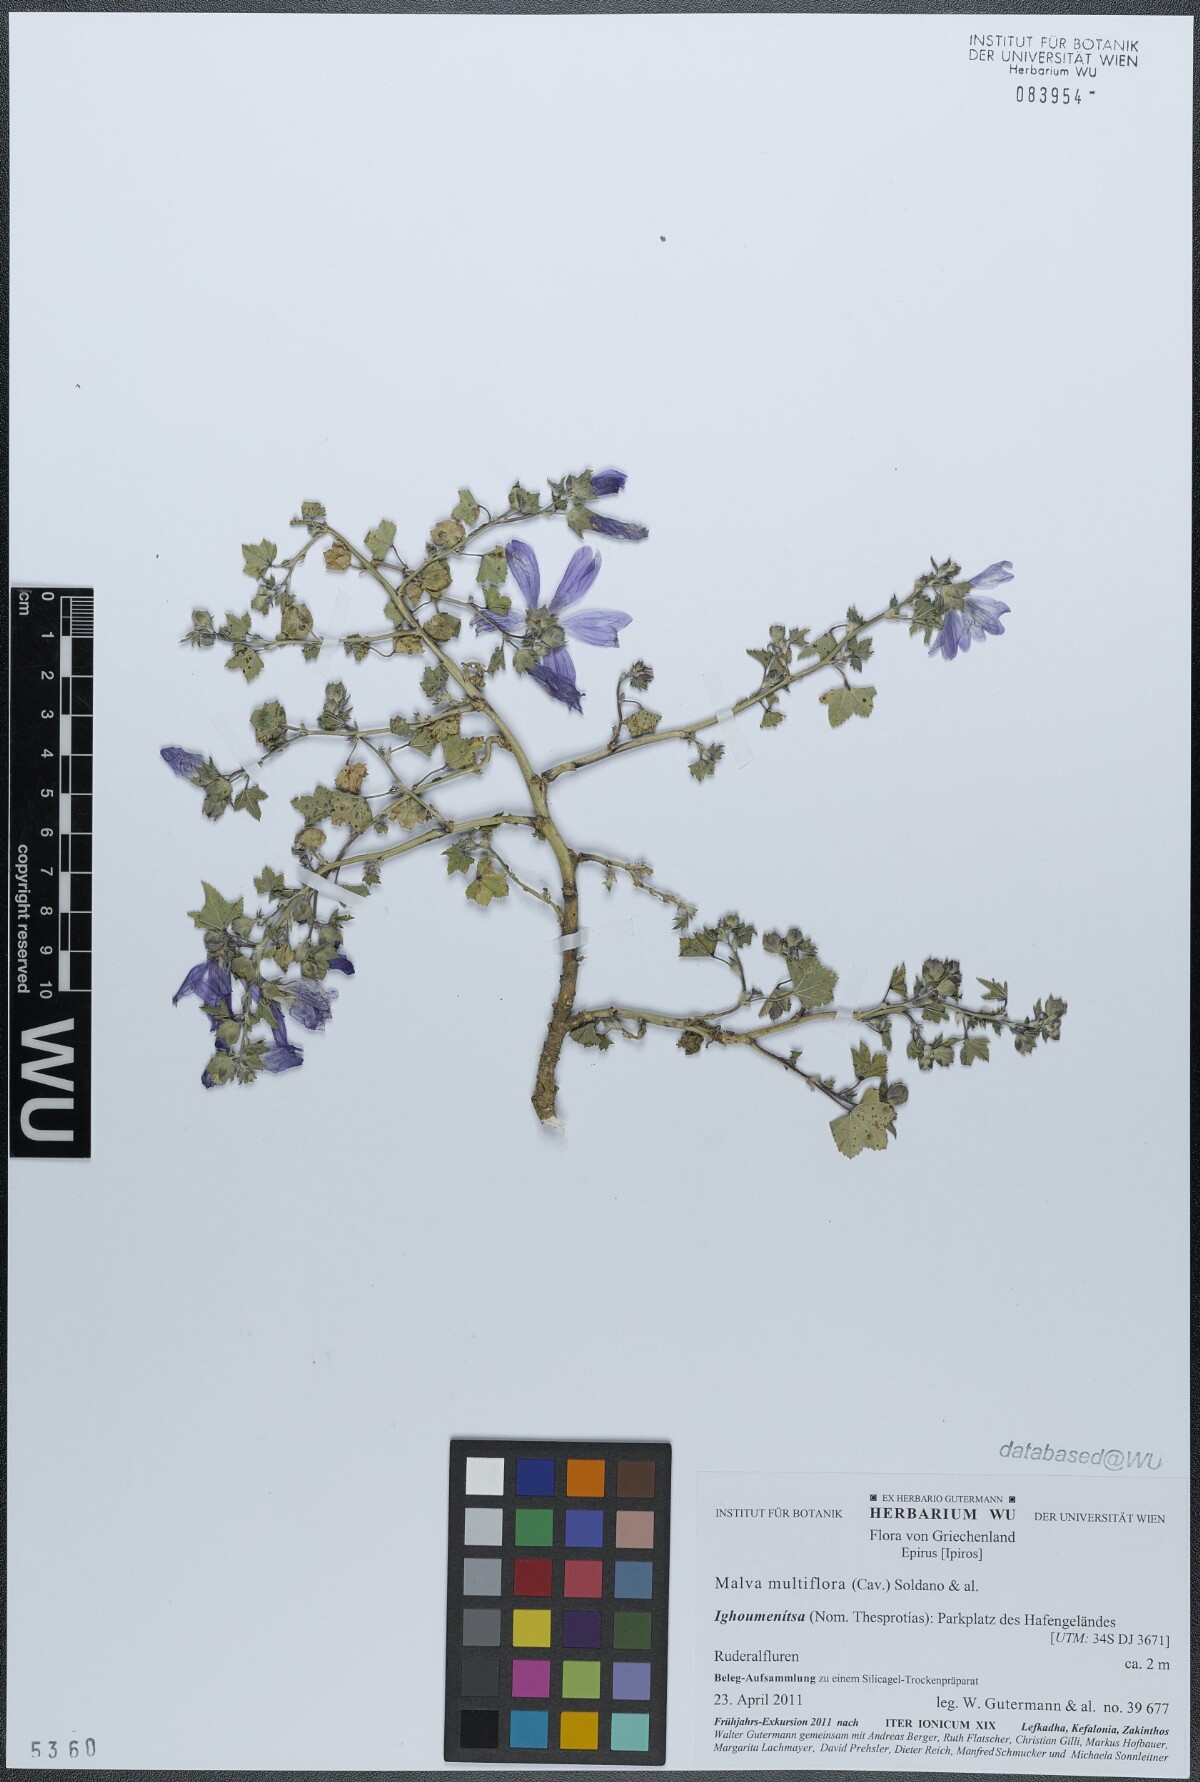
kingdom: Plantae
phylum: Tracheophyta
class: Magnoliopsida
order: Malvales
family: Malvaceae
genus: Malva
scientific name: Malva multiflora
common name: Cheeseweed
